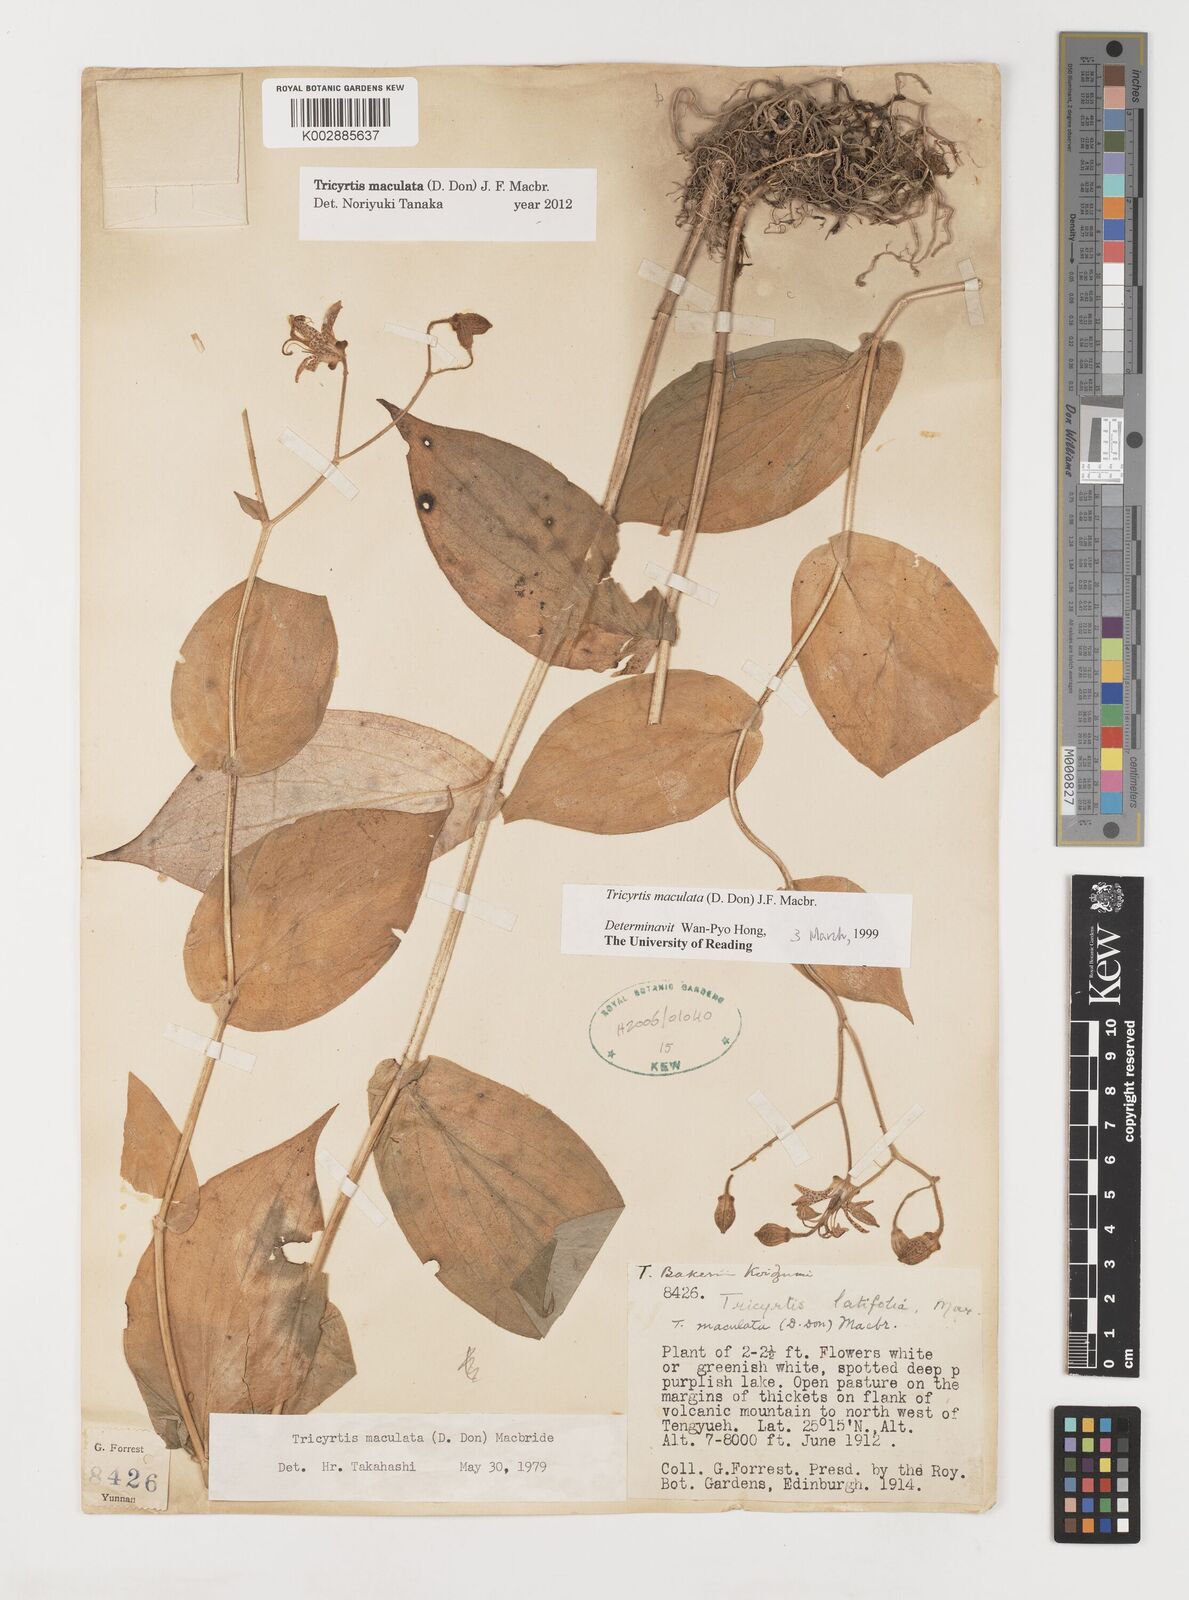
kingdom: Plantae
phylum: Tracheophyta
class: Liliopsida
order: Liliales
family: Liliaceae
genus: Tricyrtis
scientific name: Tricyrtis maculata
